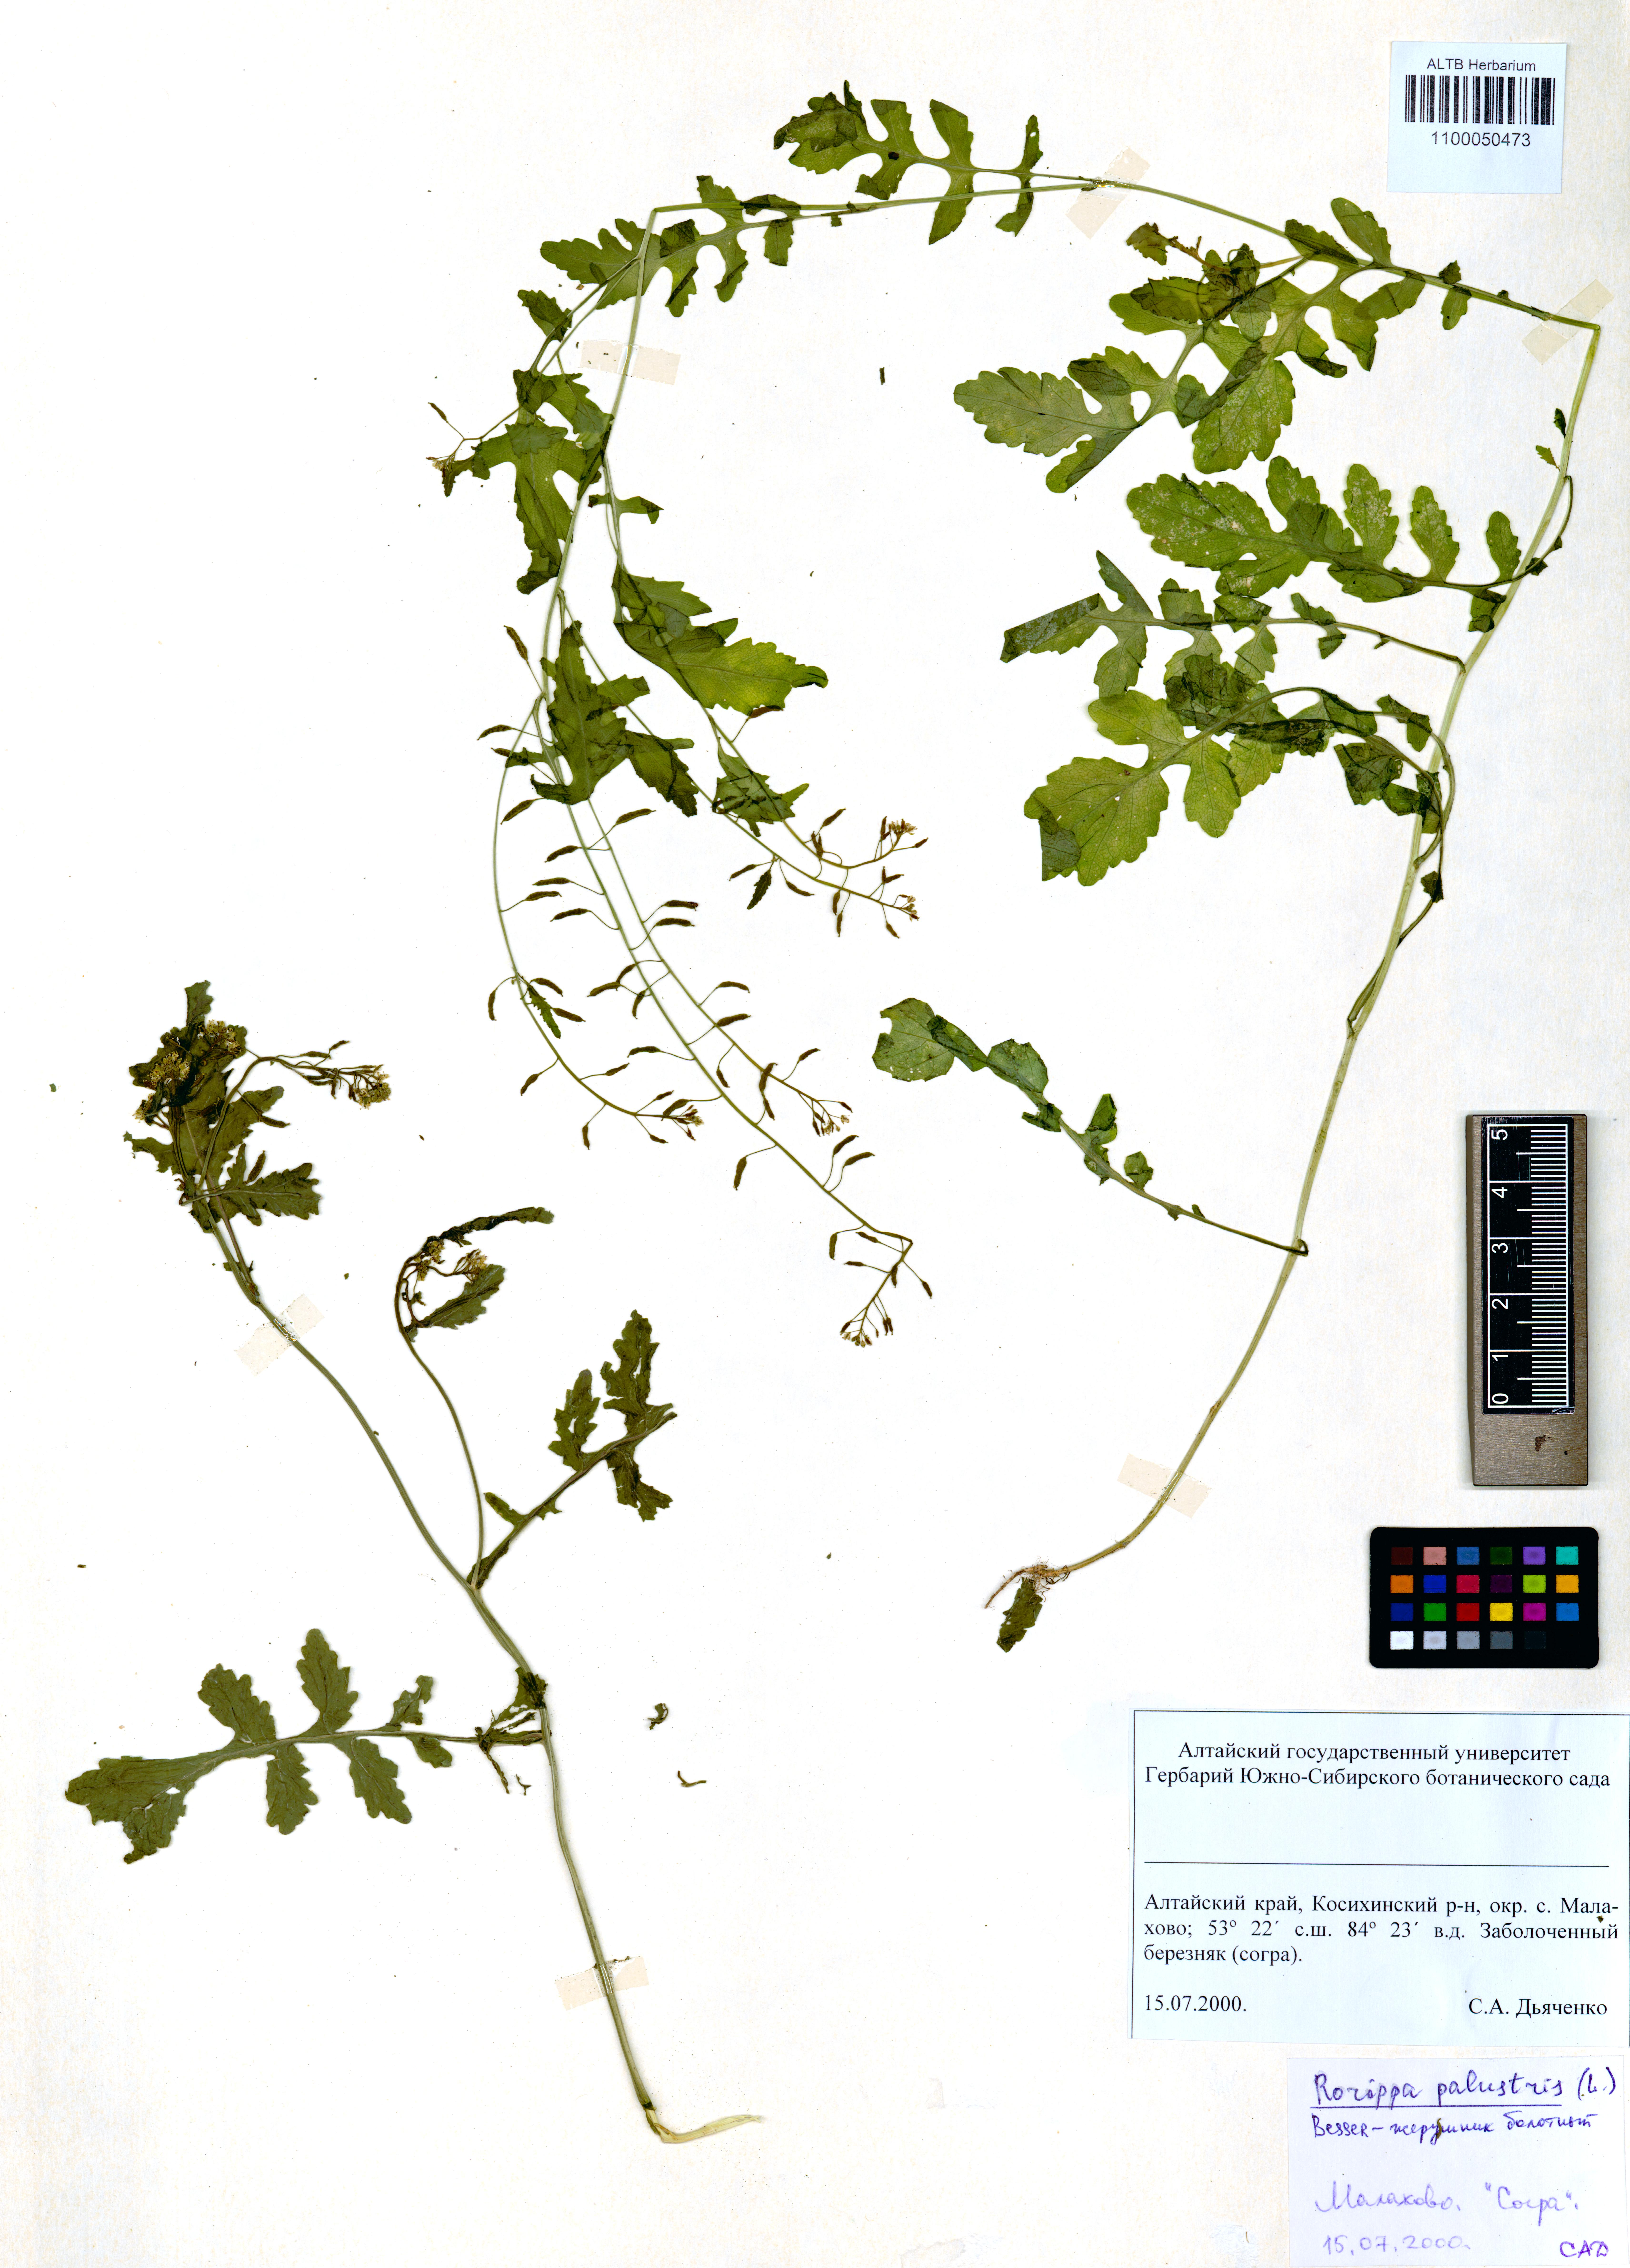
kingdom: Plantae
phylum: Tracheophyta
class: Magnoliopsida
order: Brassicales
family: Brassicaceae
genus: Rorippa
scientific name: Rorippa palustris
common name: Marsh yellow-cress
